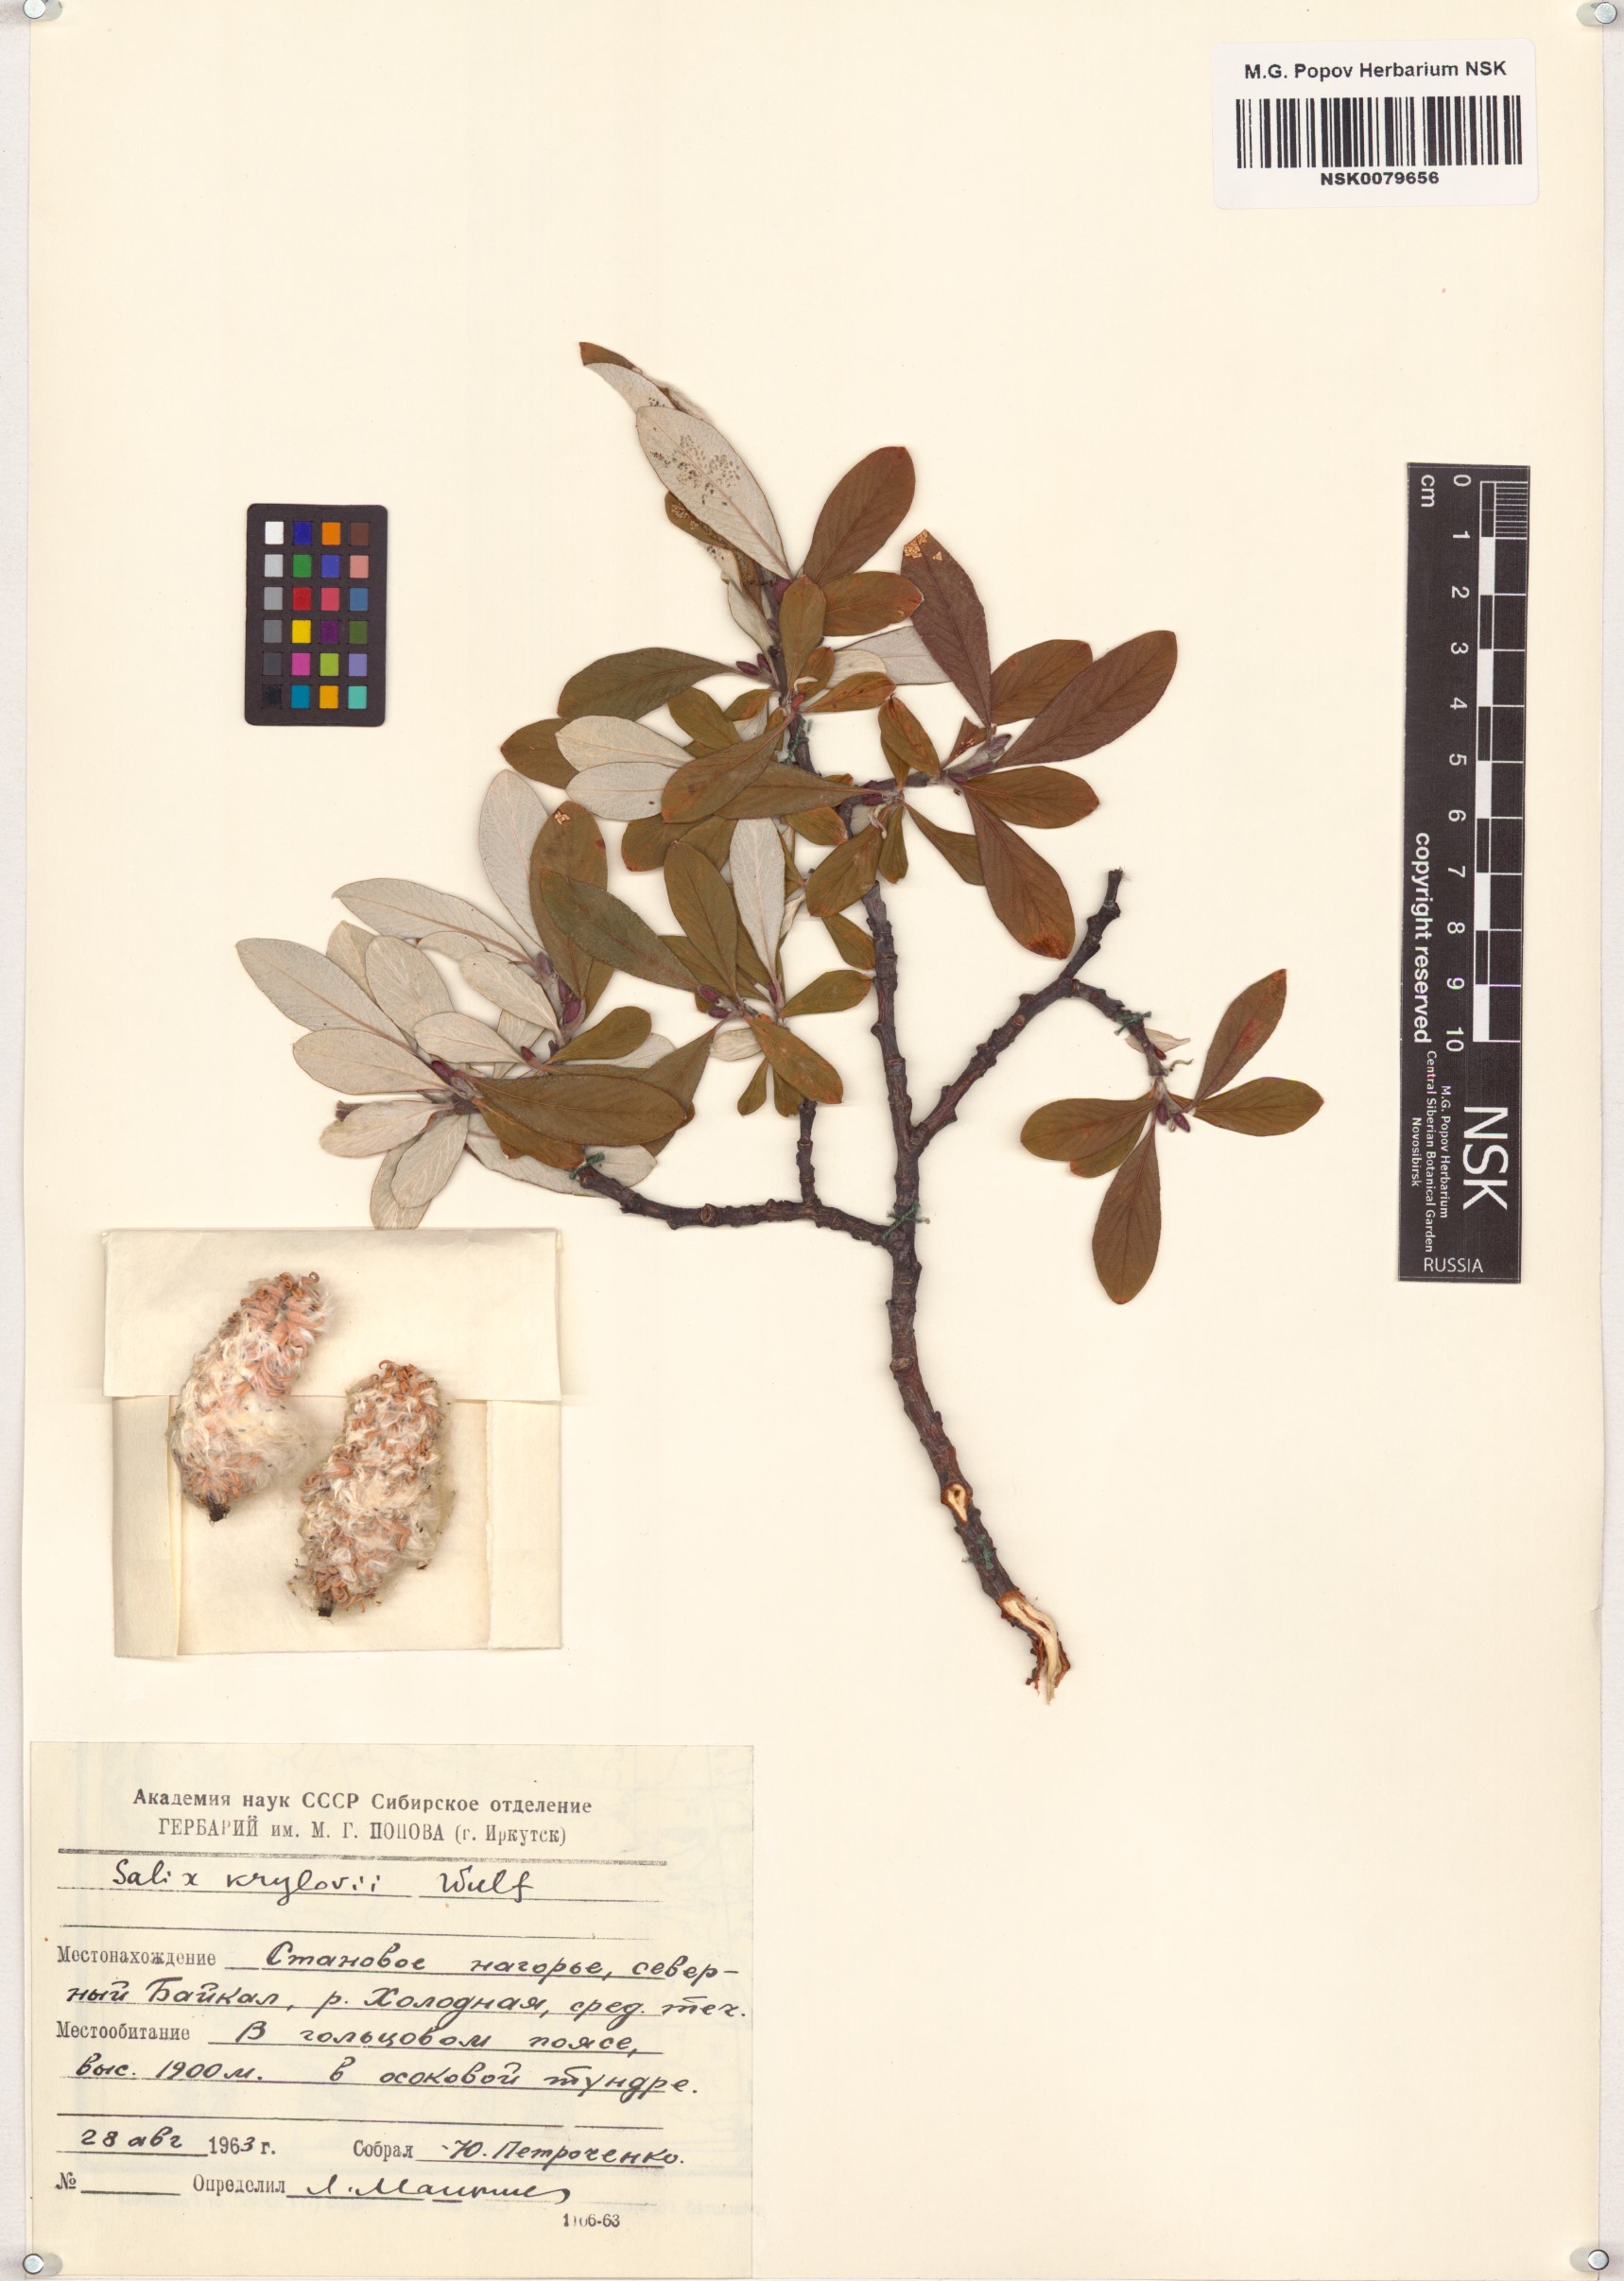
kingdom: Plantae
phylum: Tracheophyta
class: Magnoliopsida
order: Malpighiales
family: Salicaceae
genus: Salix
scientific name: Salix krylovii
